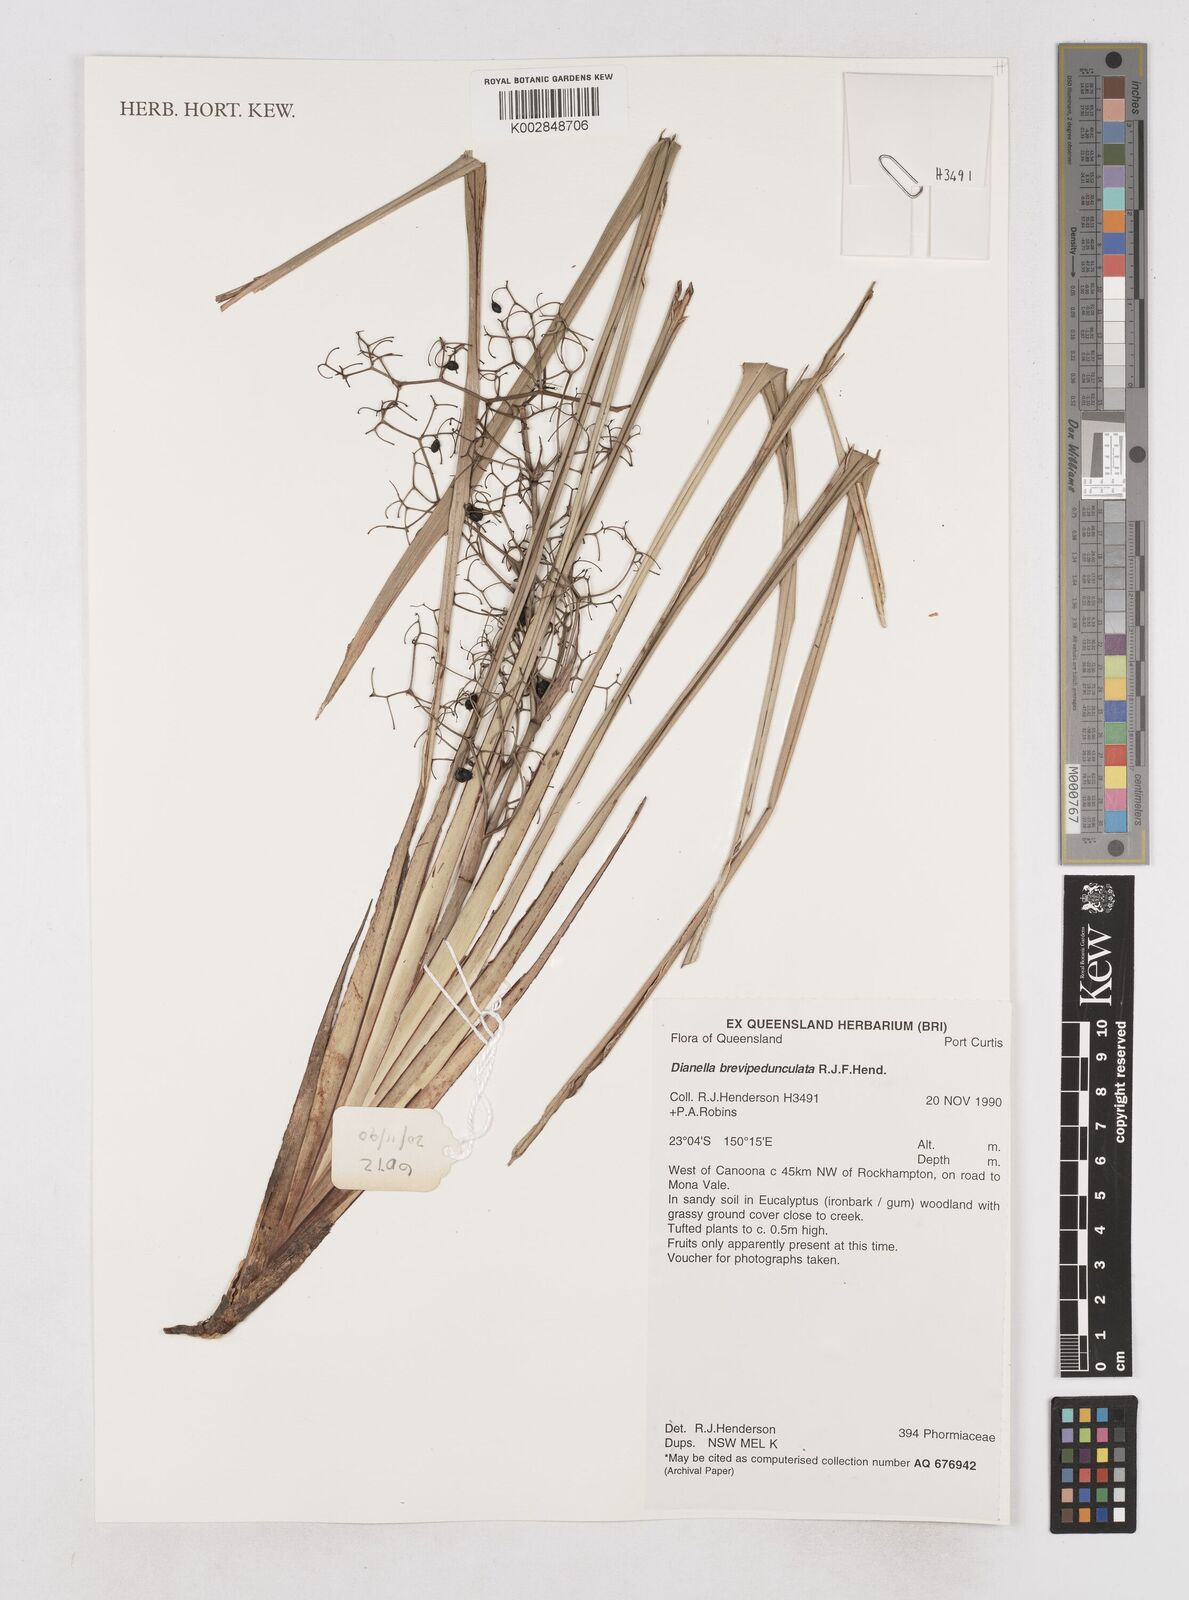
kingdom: Plantae
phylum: Tracheophyta
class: Liliopsida
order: Asparagales
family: Asphodelaceae
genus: Dianella
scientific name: Dianella brevipedunculata
